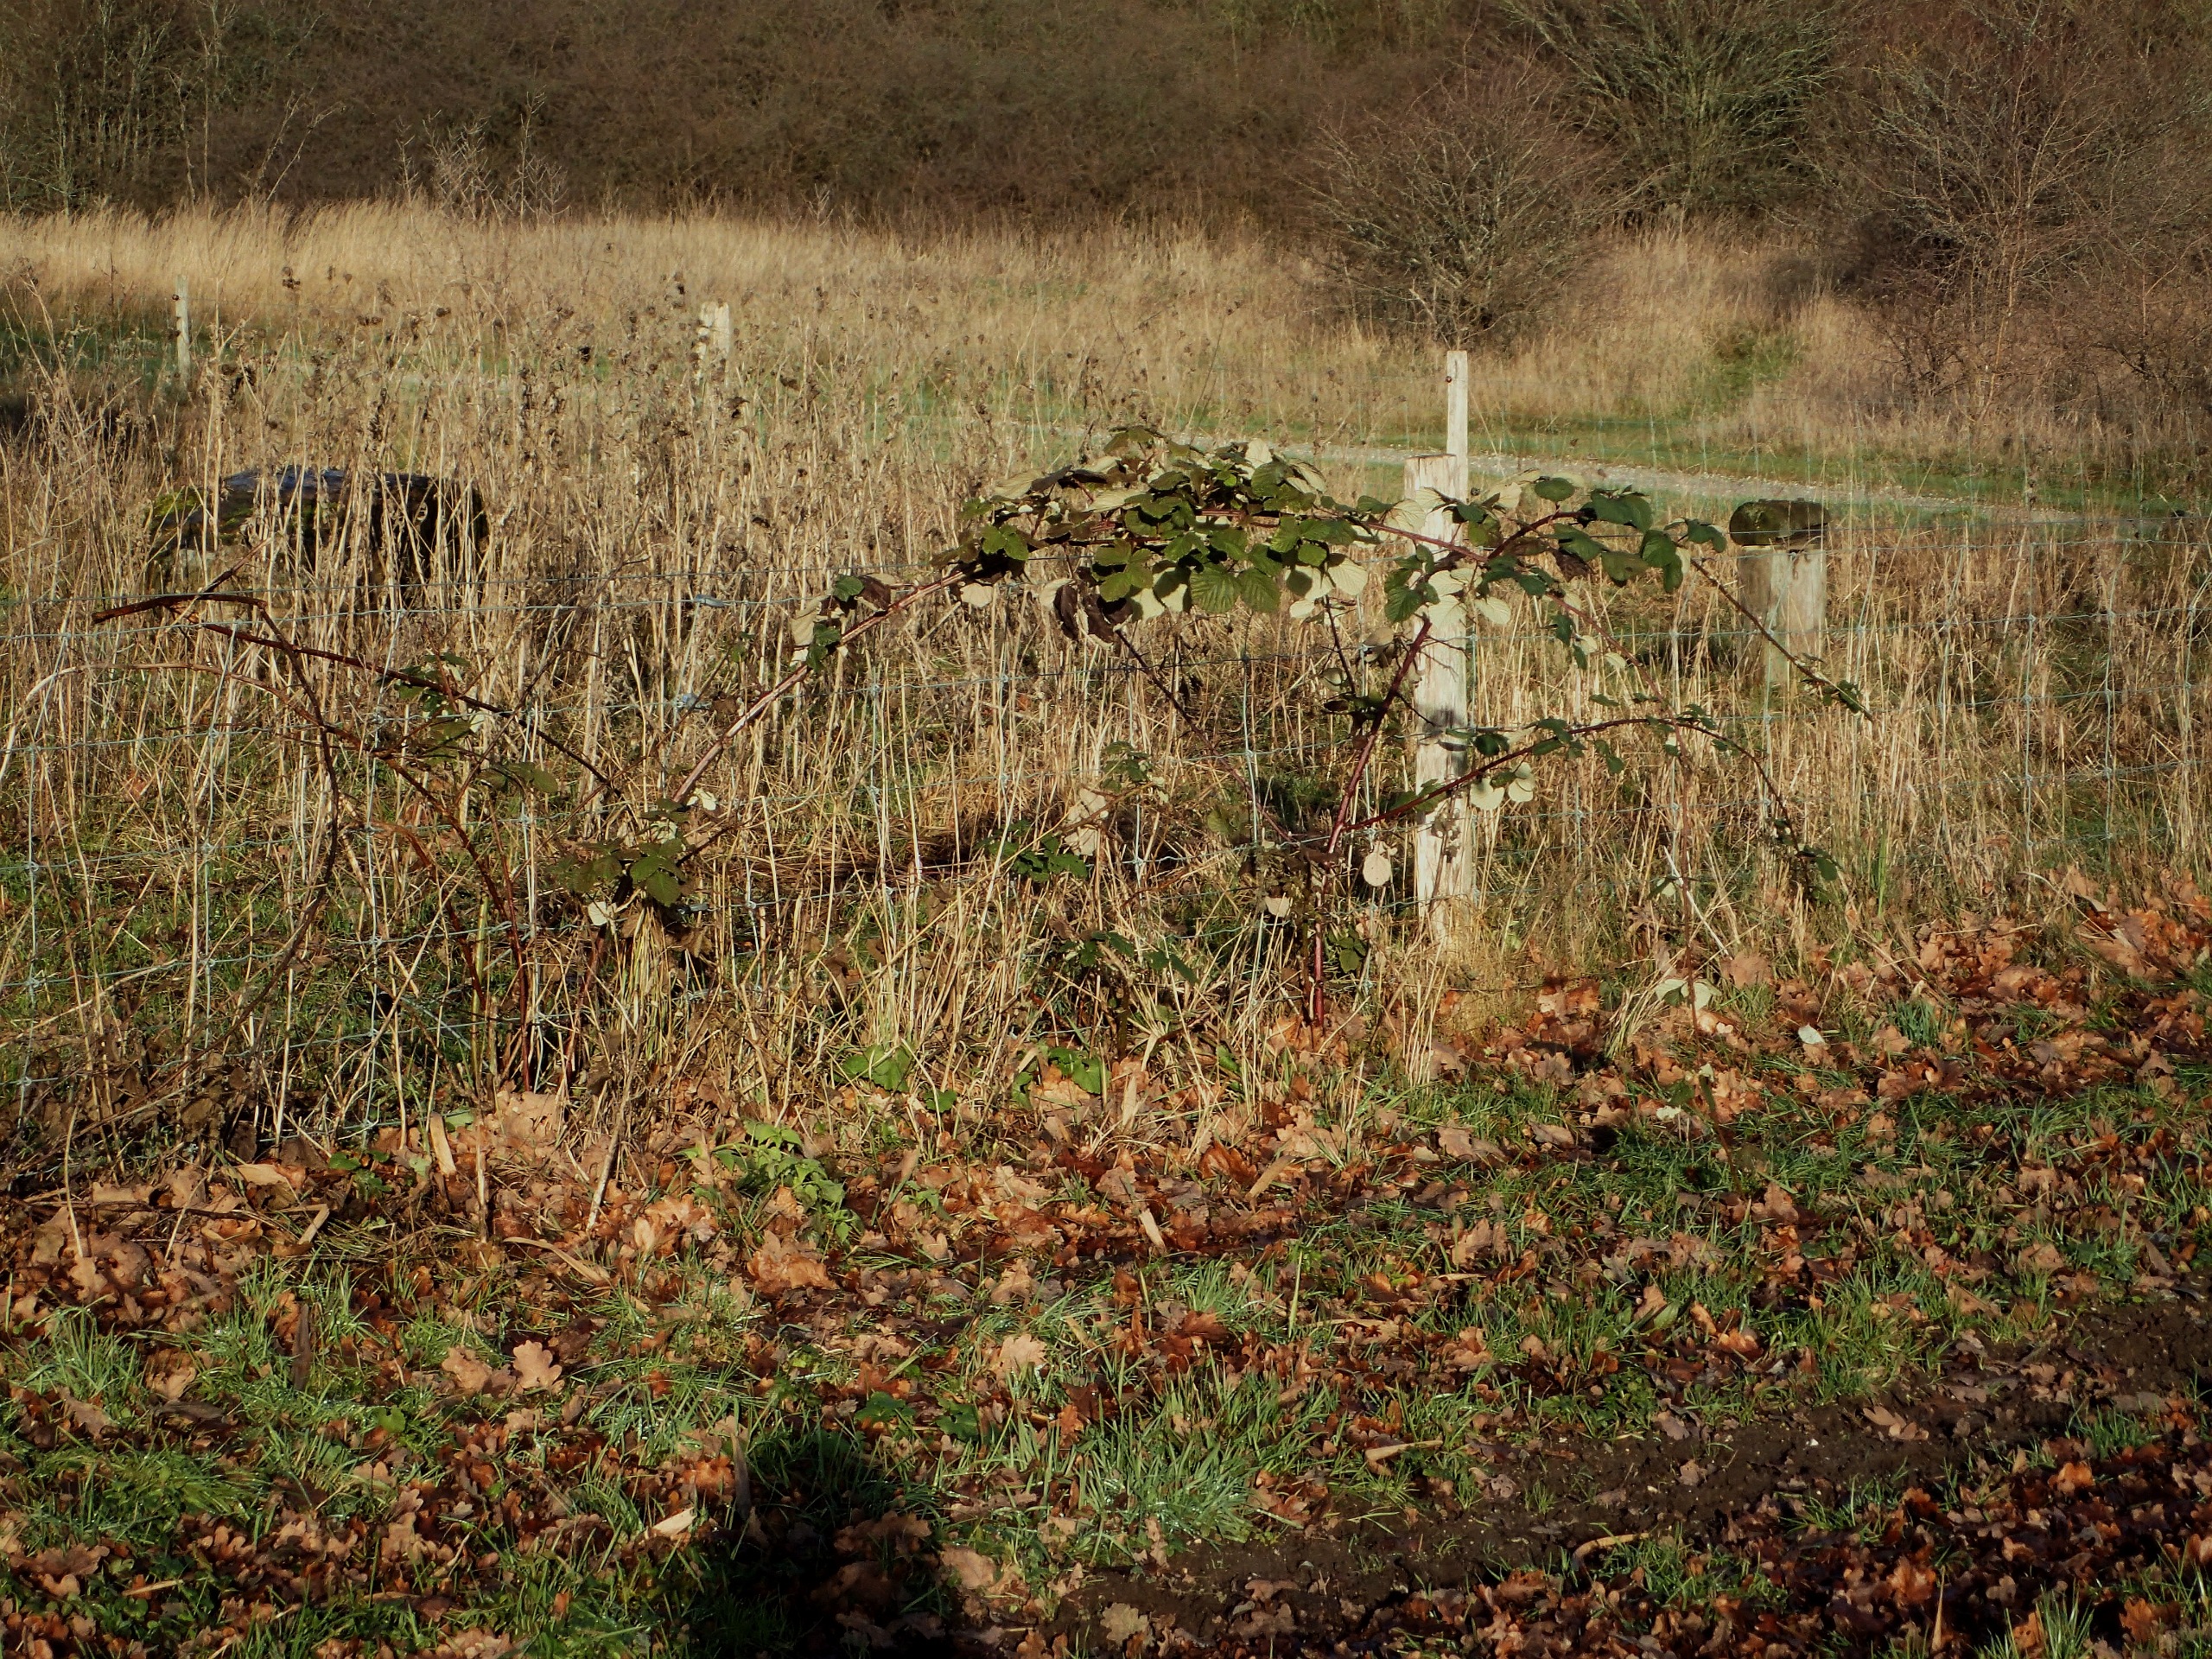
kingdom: Plantae
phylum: Tracheophyta
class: Magnoliopsida
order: Rosales
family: Rosaceae
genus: Rubus
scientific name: Rubus armeniacus
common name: Armensk brombær
